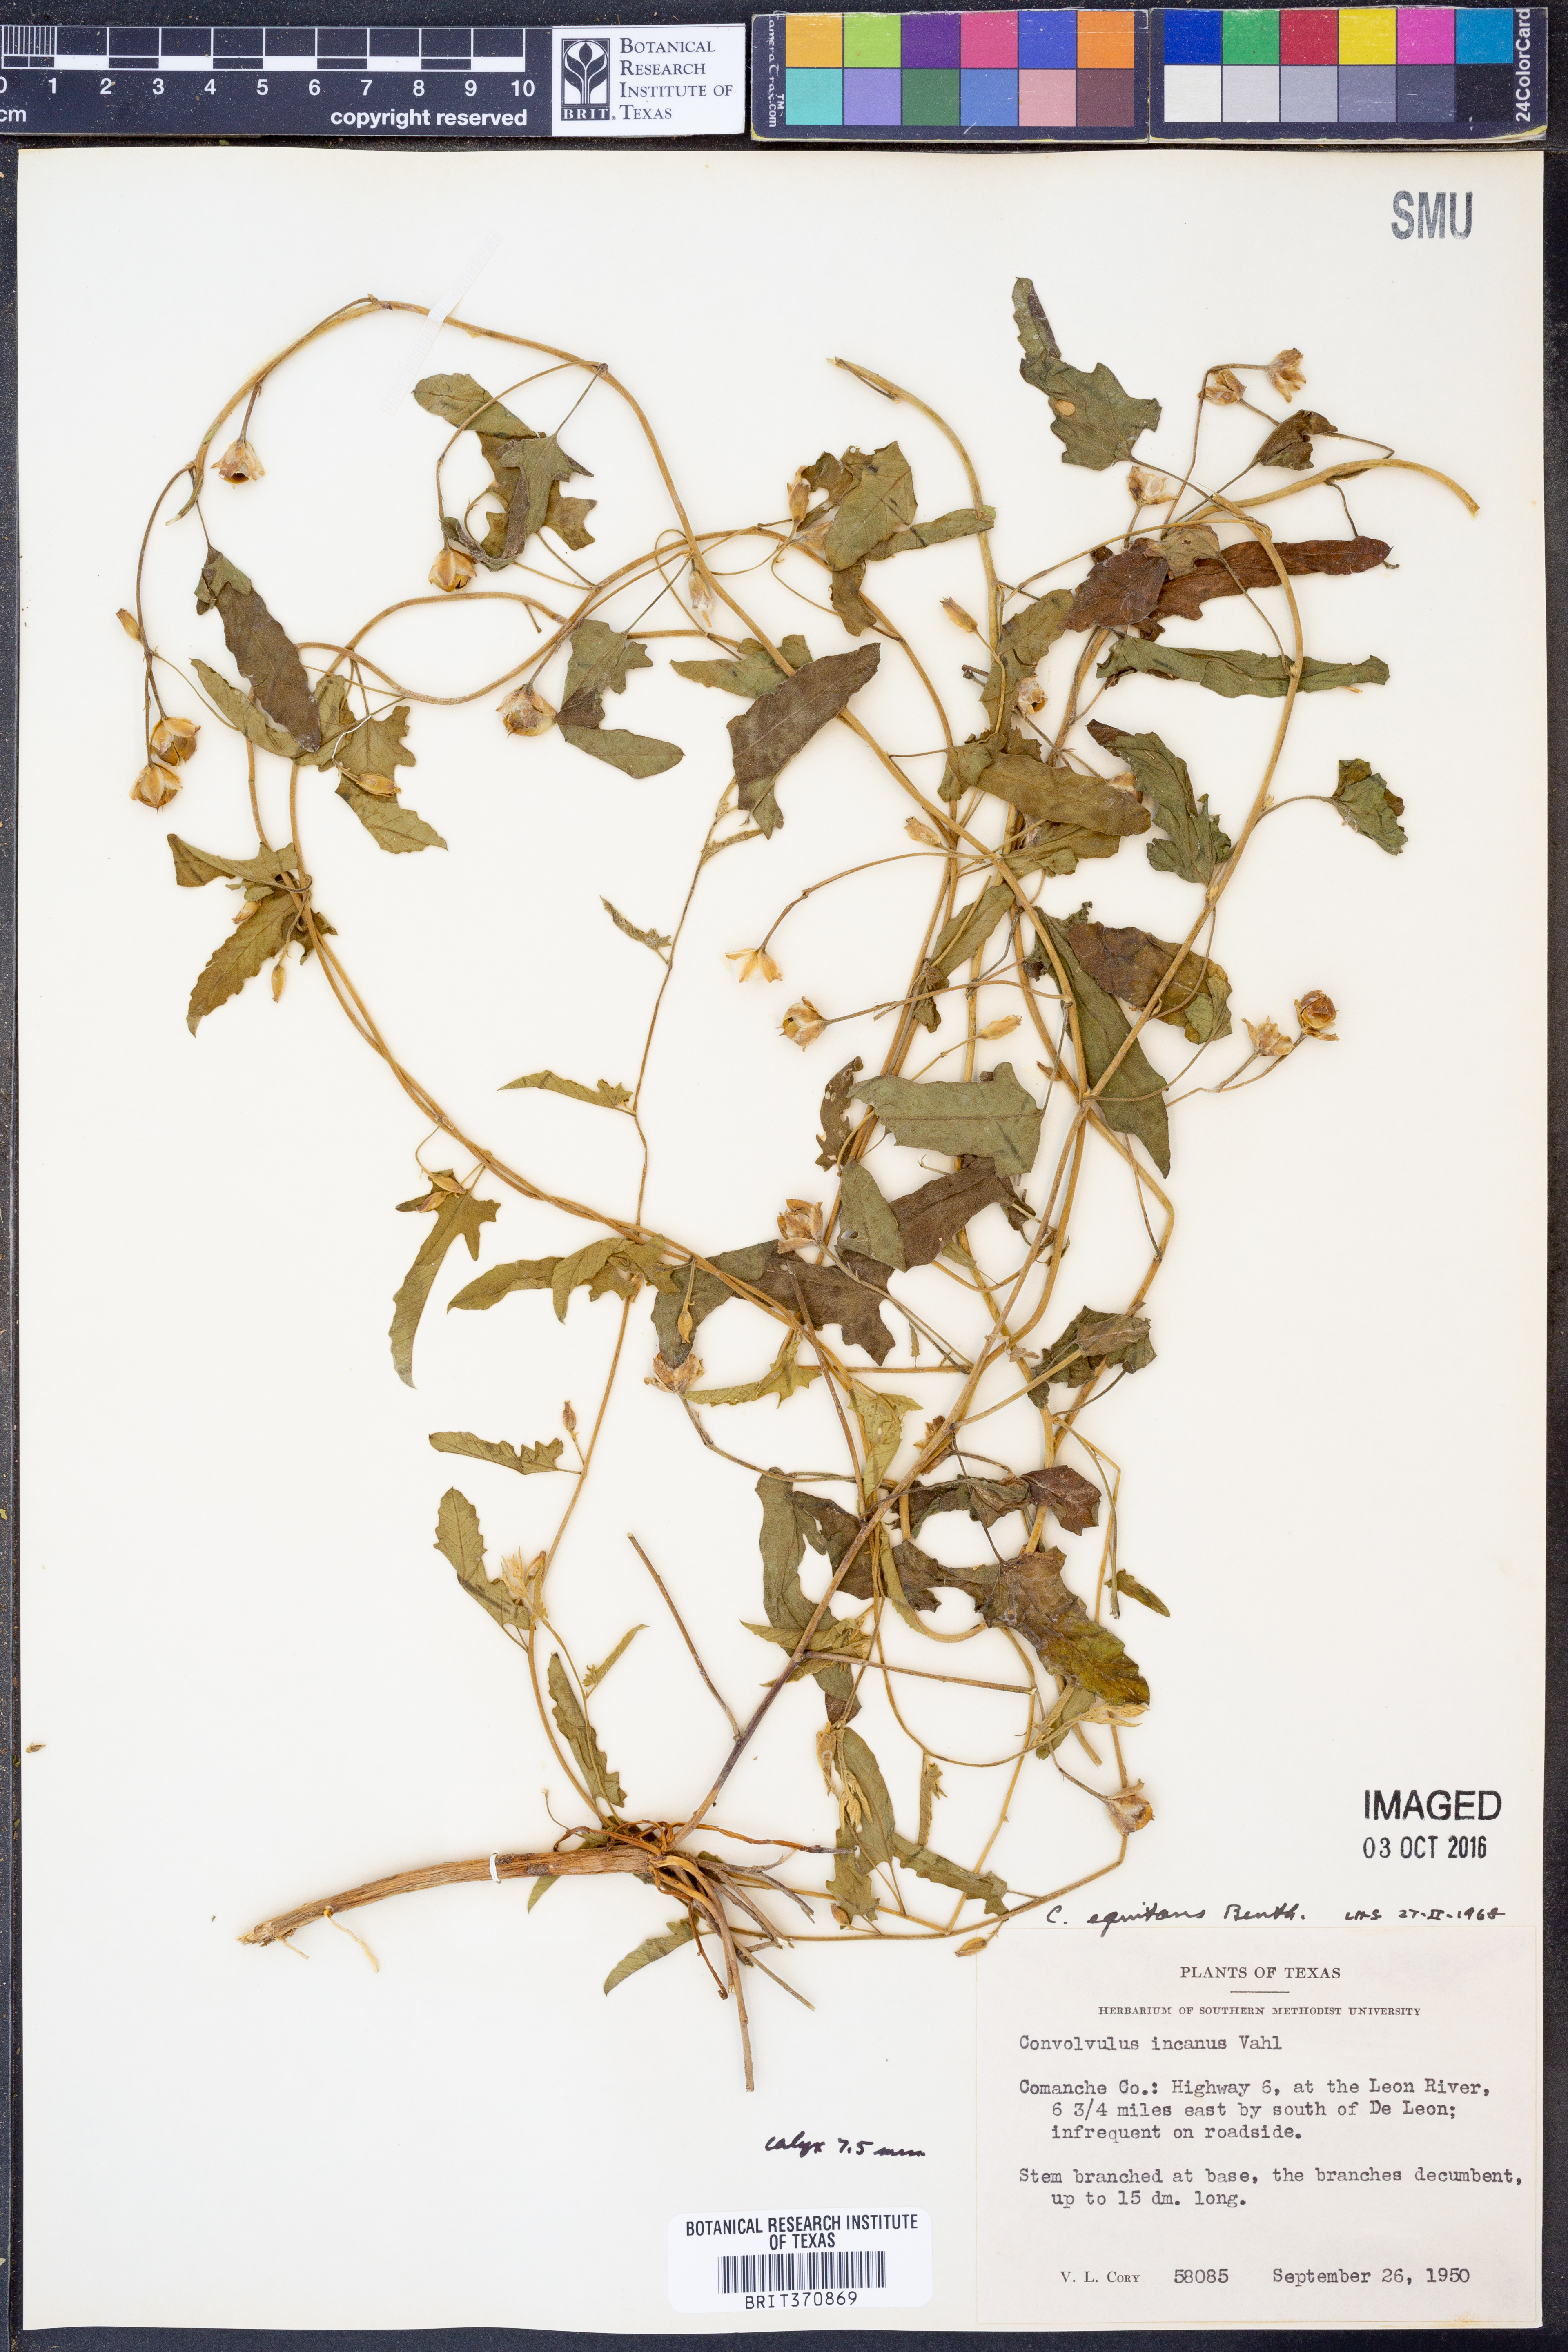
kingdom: Plantae
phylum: Tracheophyta
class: Magnoliopsida
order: Solanales
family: Convolvulaceae
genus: Convolvulus
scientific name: Convolvulus equitans
